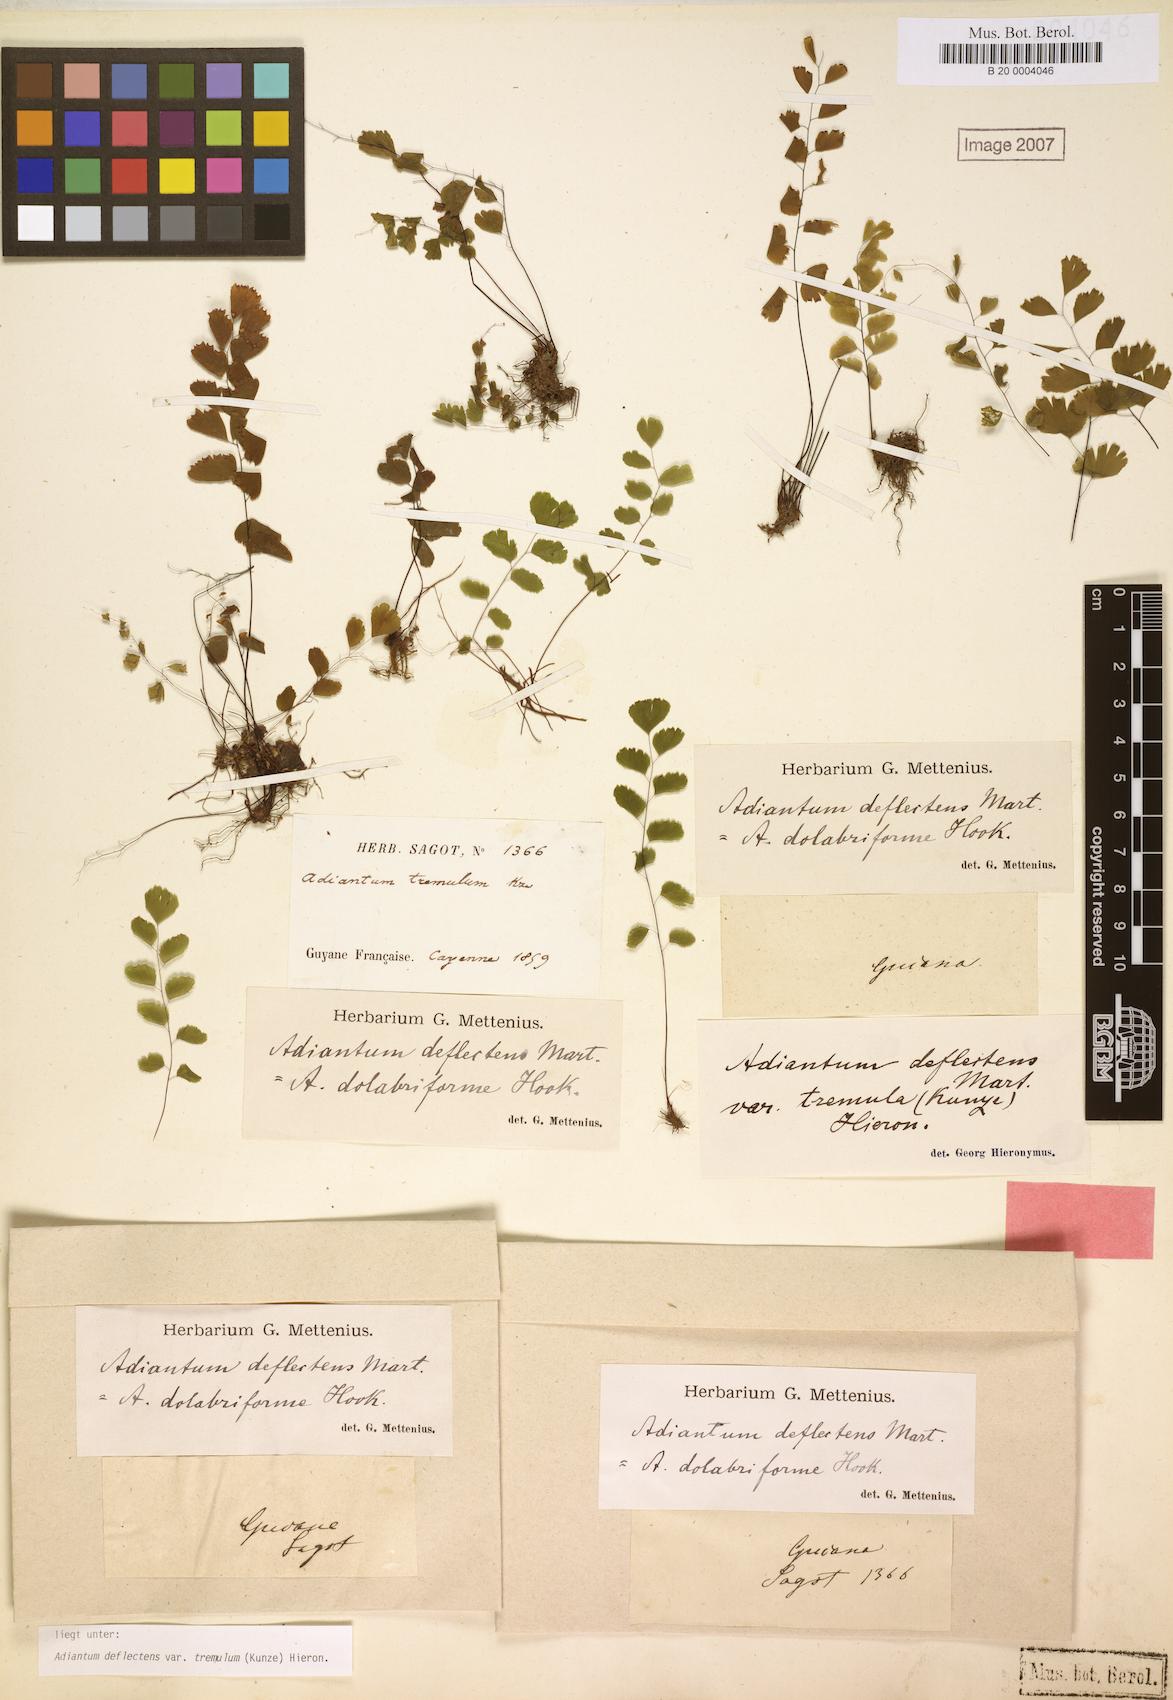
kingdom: Plantae
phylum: Tracheophyta
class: Polypodiopsida
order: Polypodiales
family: Pteridaceae
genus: Adiantum
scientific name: Adiantum deflectens
